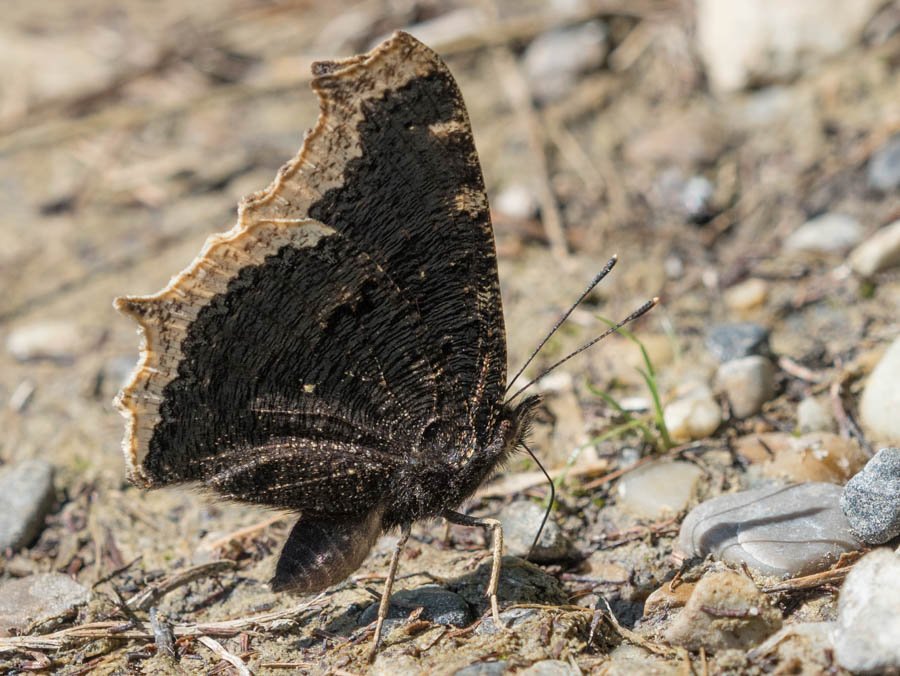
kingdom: Animalia
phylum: Arthropoda
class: Insecta
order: Lepidoptera
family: Nymphalidae
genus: Nymphalis
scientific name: Nymphalis antiopa
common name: Mourning Cloak
